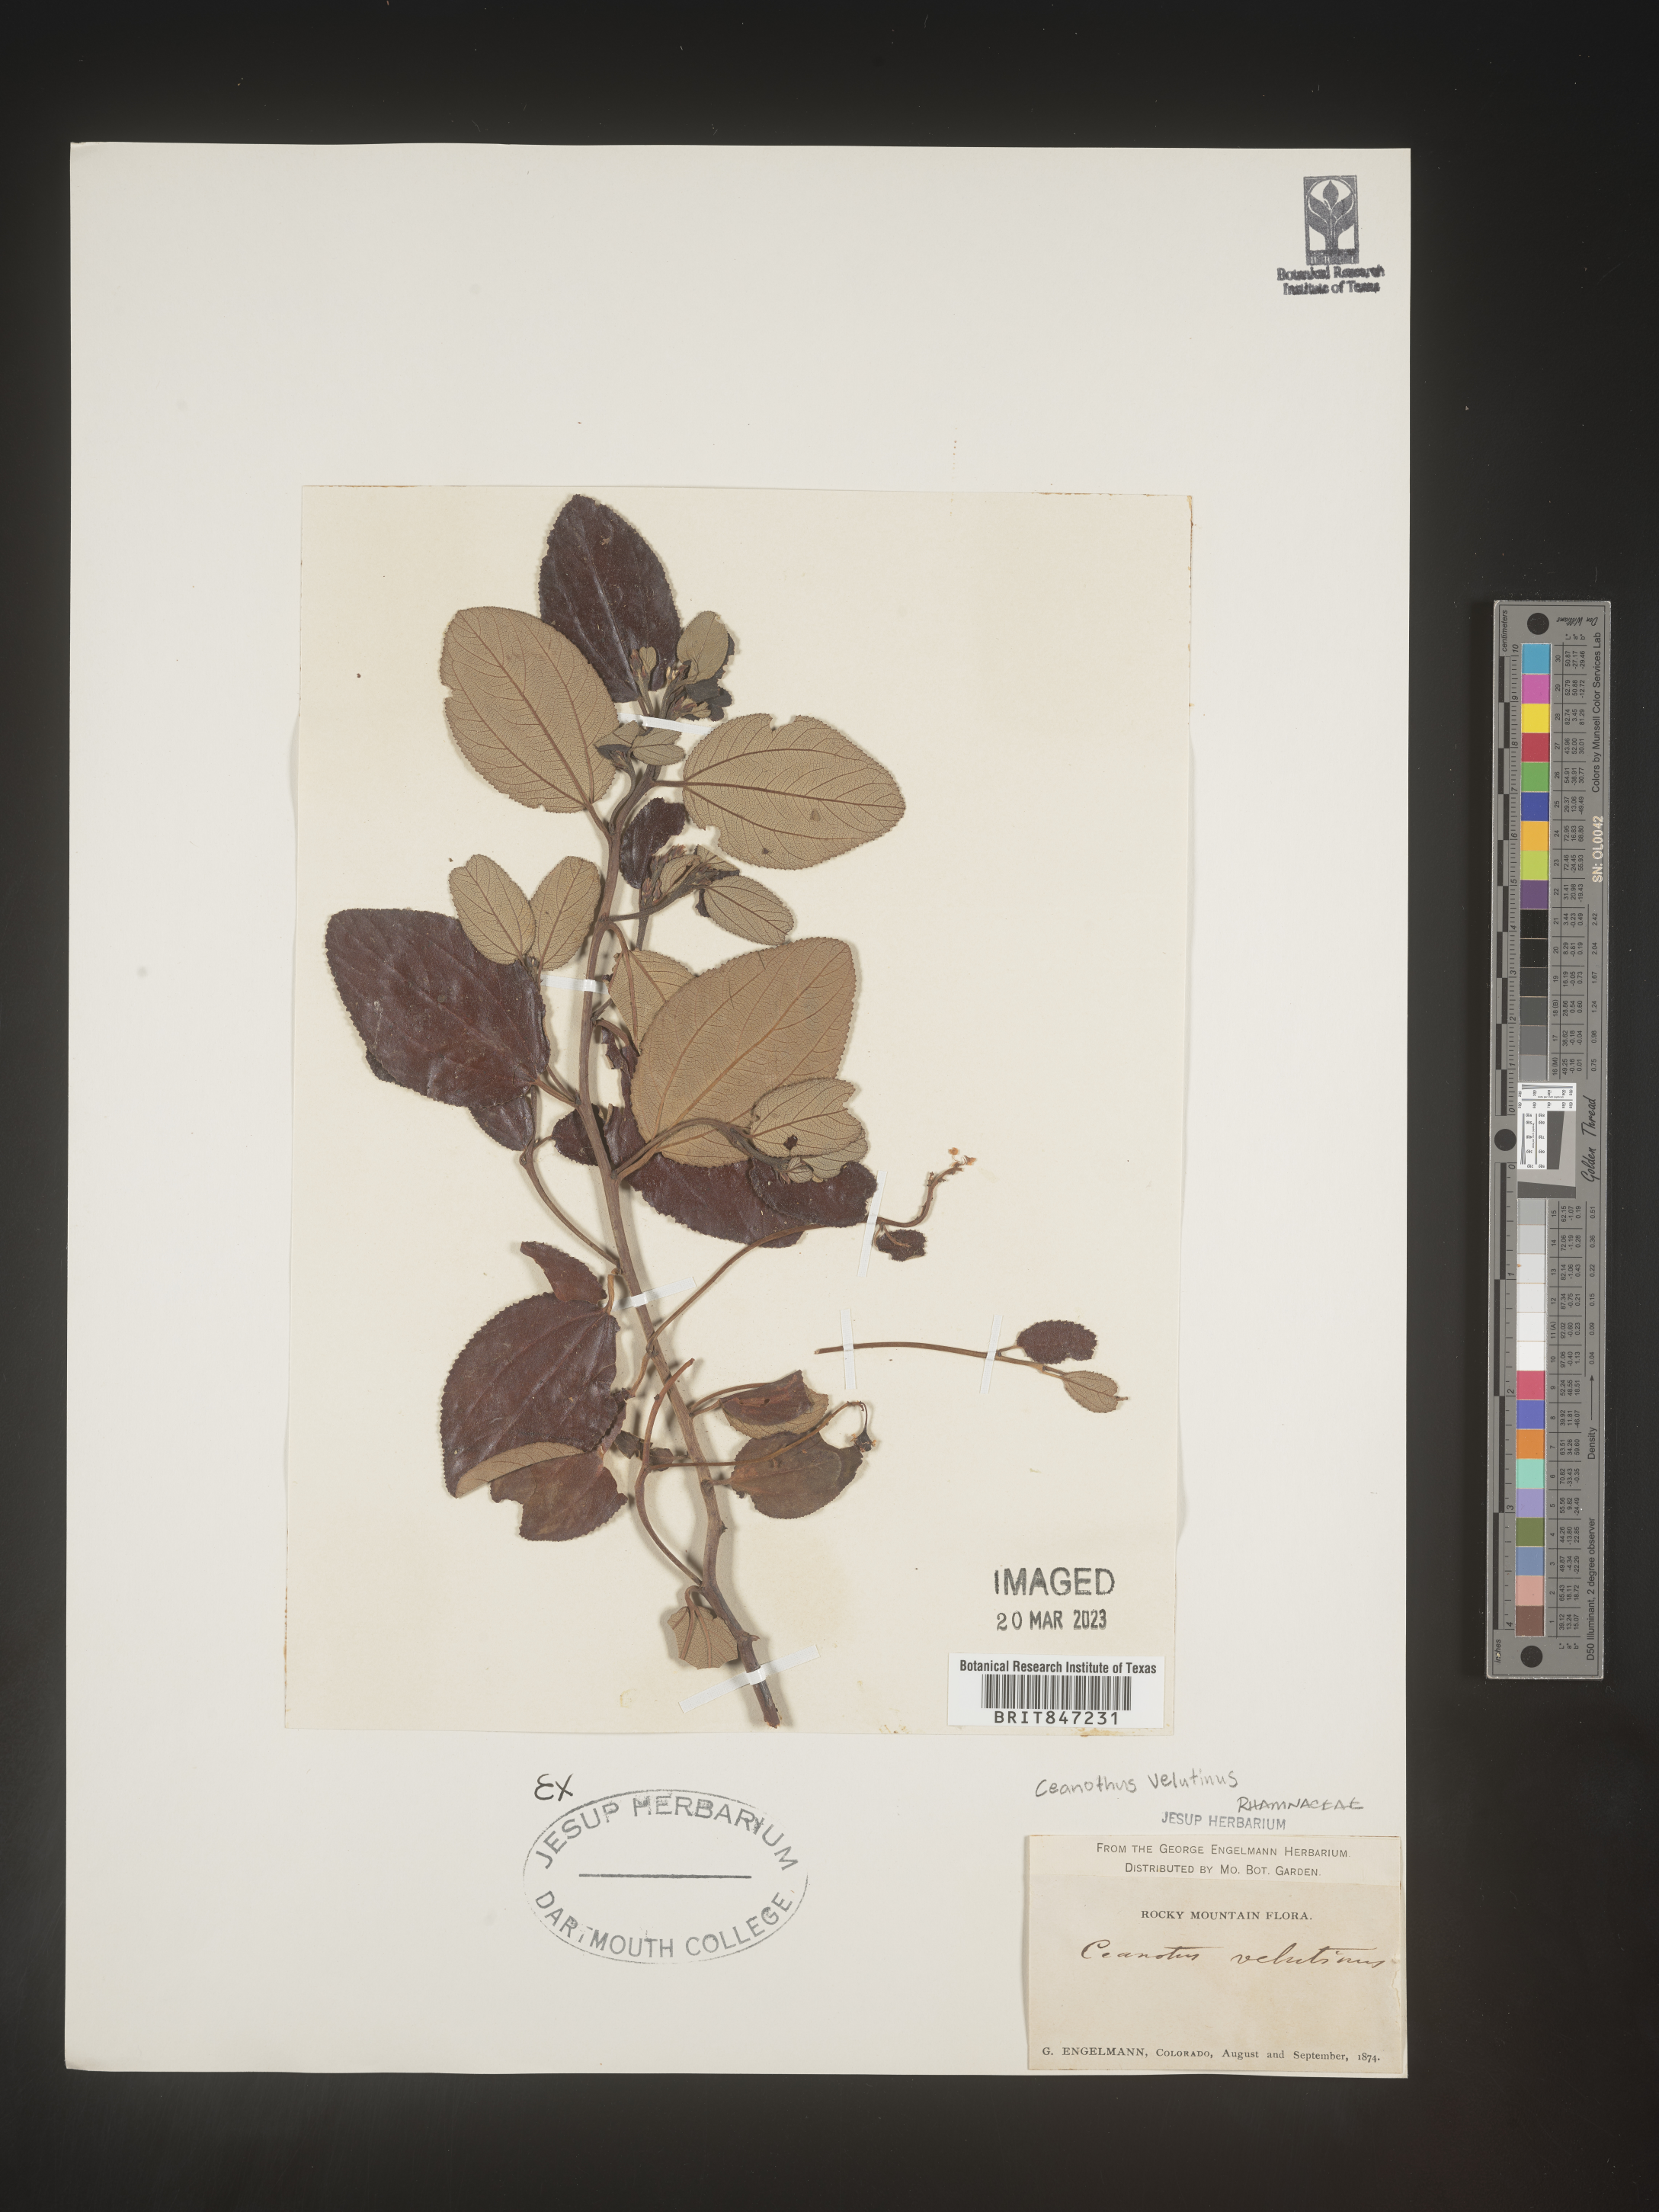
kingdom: Plantae
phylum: Tracheophyta
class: Magnoliopsida
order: Rosales
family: Rhamnaceae
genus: Ceanothus
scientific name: Ceanothus velutinus
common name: Snowbrush
